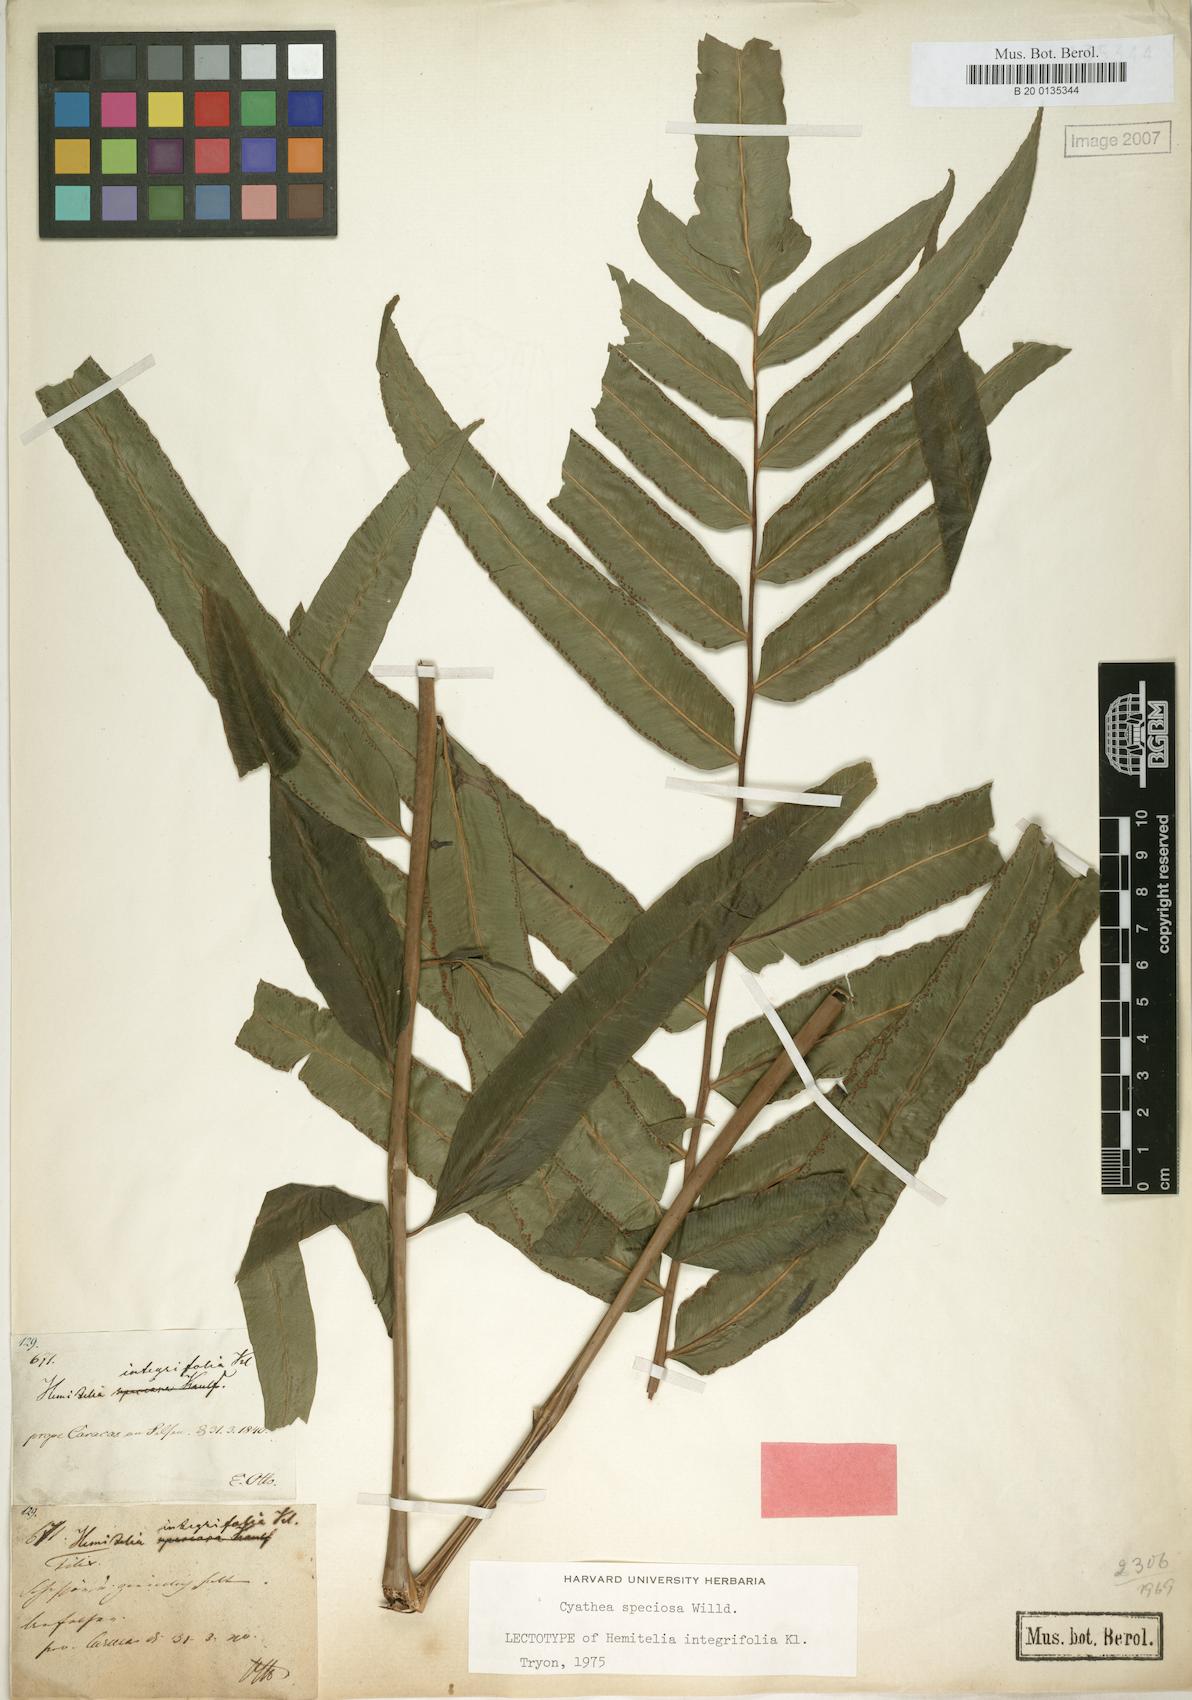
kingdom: Plantae
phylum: Tracheophyta
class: Polypodiopsida
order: Cyatheales
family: Cyatheaceae
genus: Cyathea
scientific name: Cyathea speciosa
